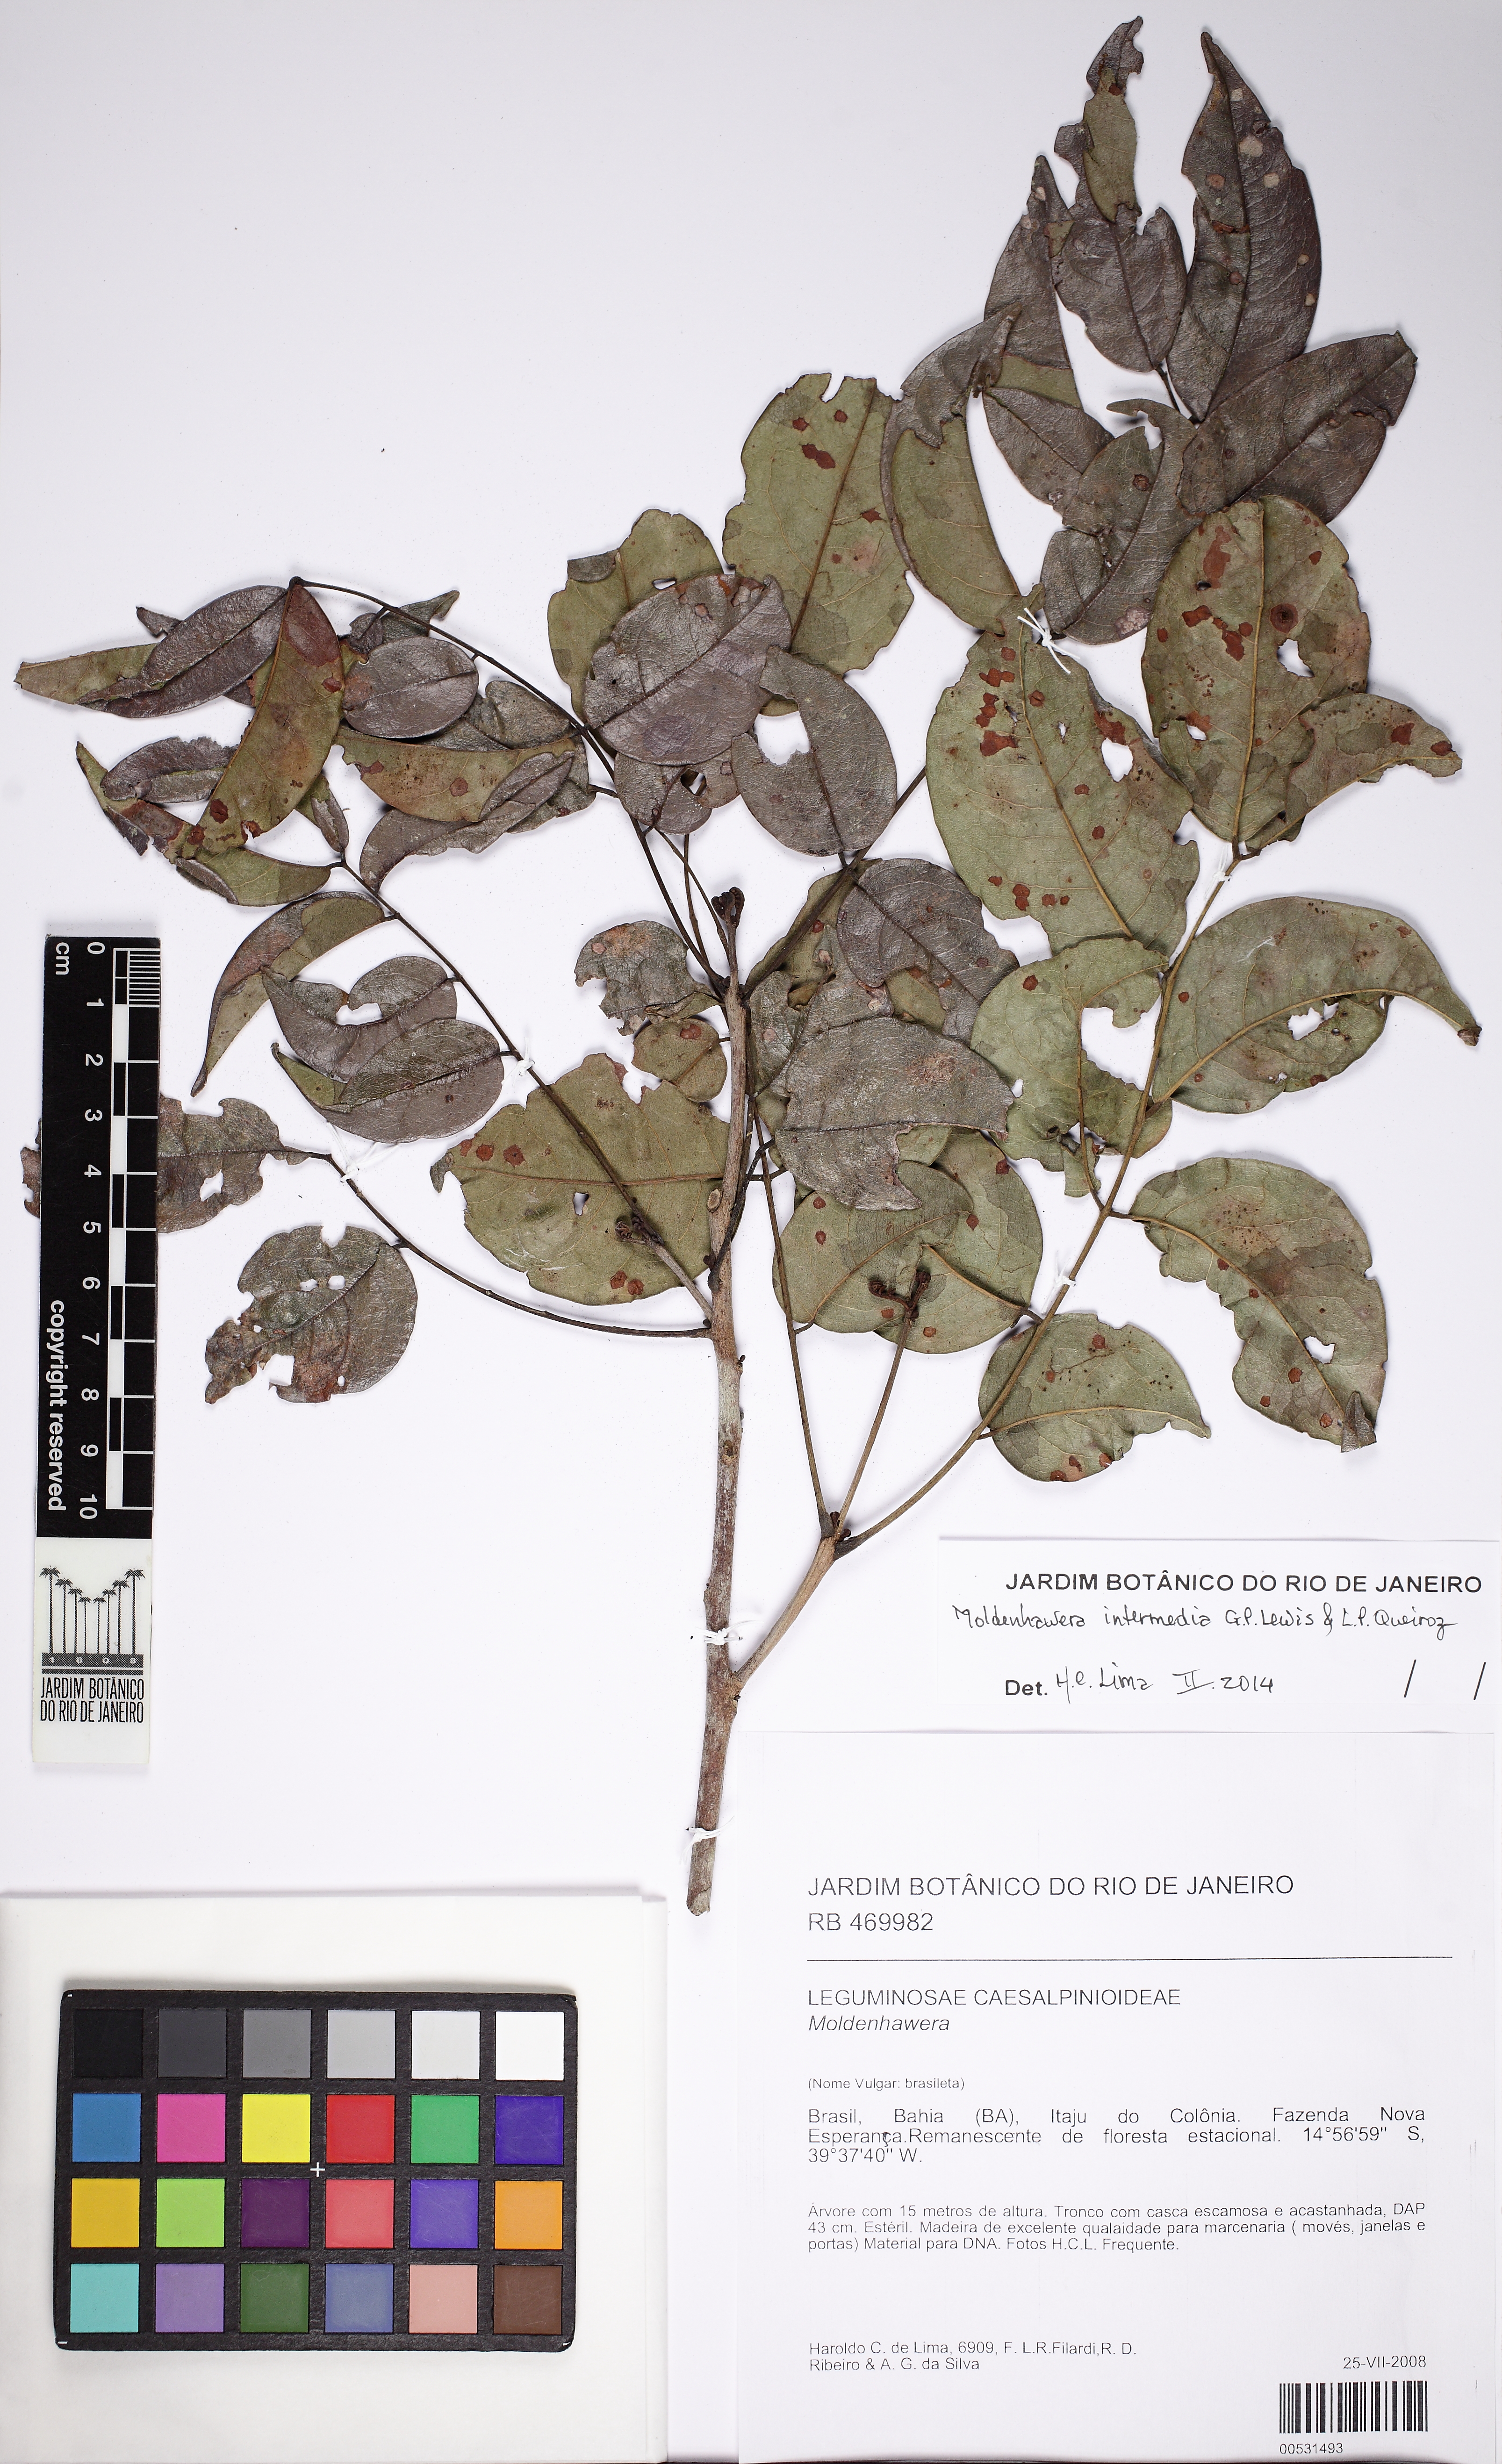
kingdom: Plantae
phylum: Tracheophyta
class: Magnoliopsida
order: Fabales
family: Fabaceae
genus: Moldenhawera
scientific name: Moldenhawera intermedia
